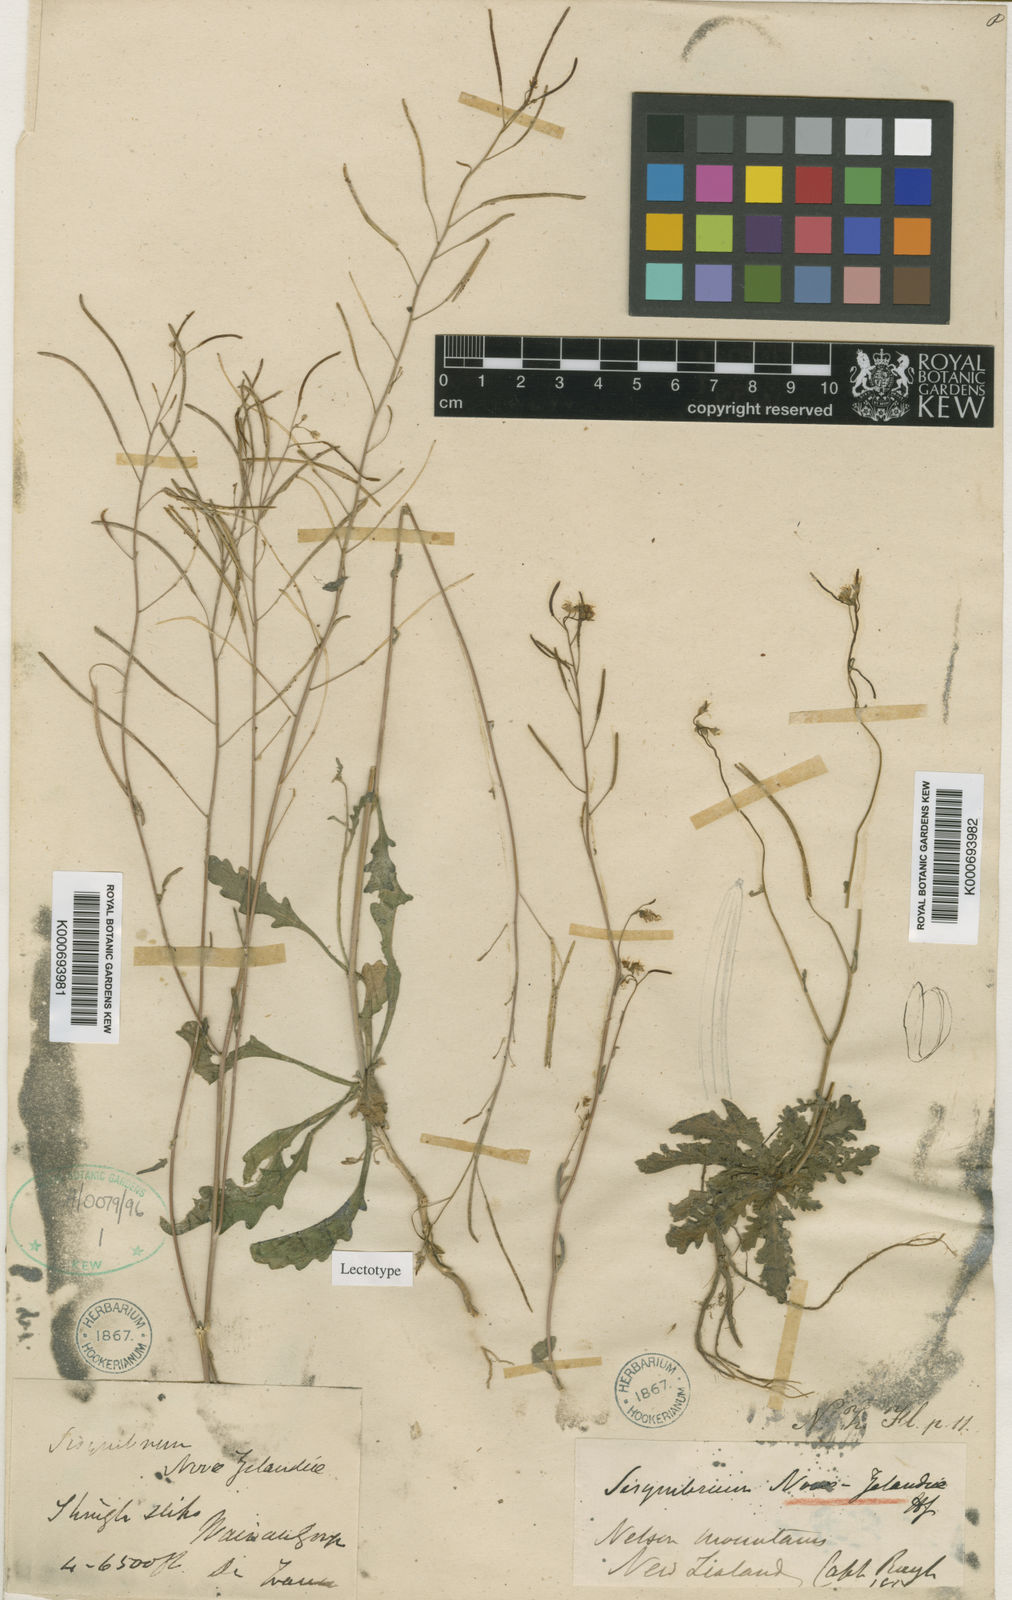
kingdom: Plantae
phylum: Tracheophyta
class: Magnoliopsida
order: Brassicales
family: Brassicaceae
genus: Pachycladon
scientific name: Pachycladon cheesmanii
